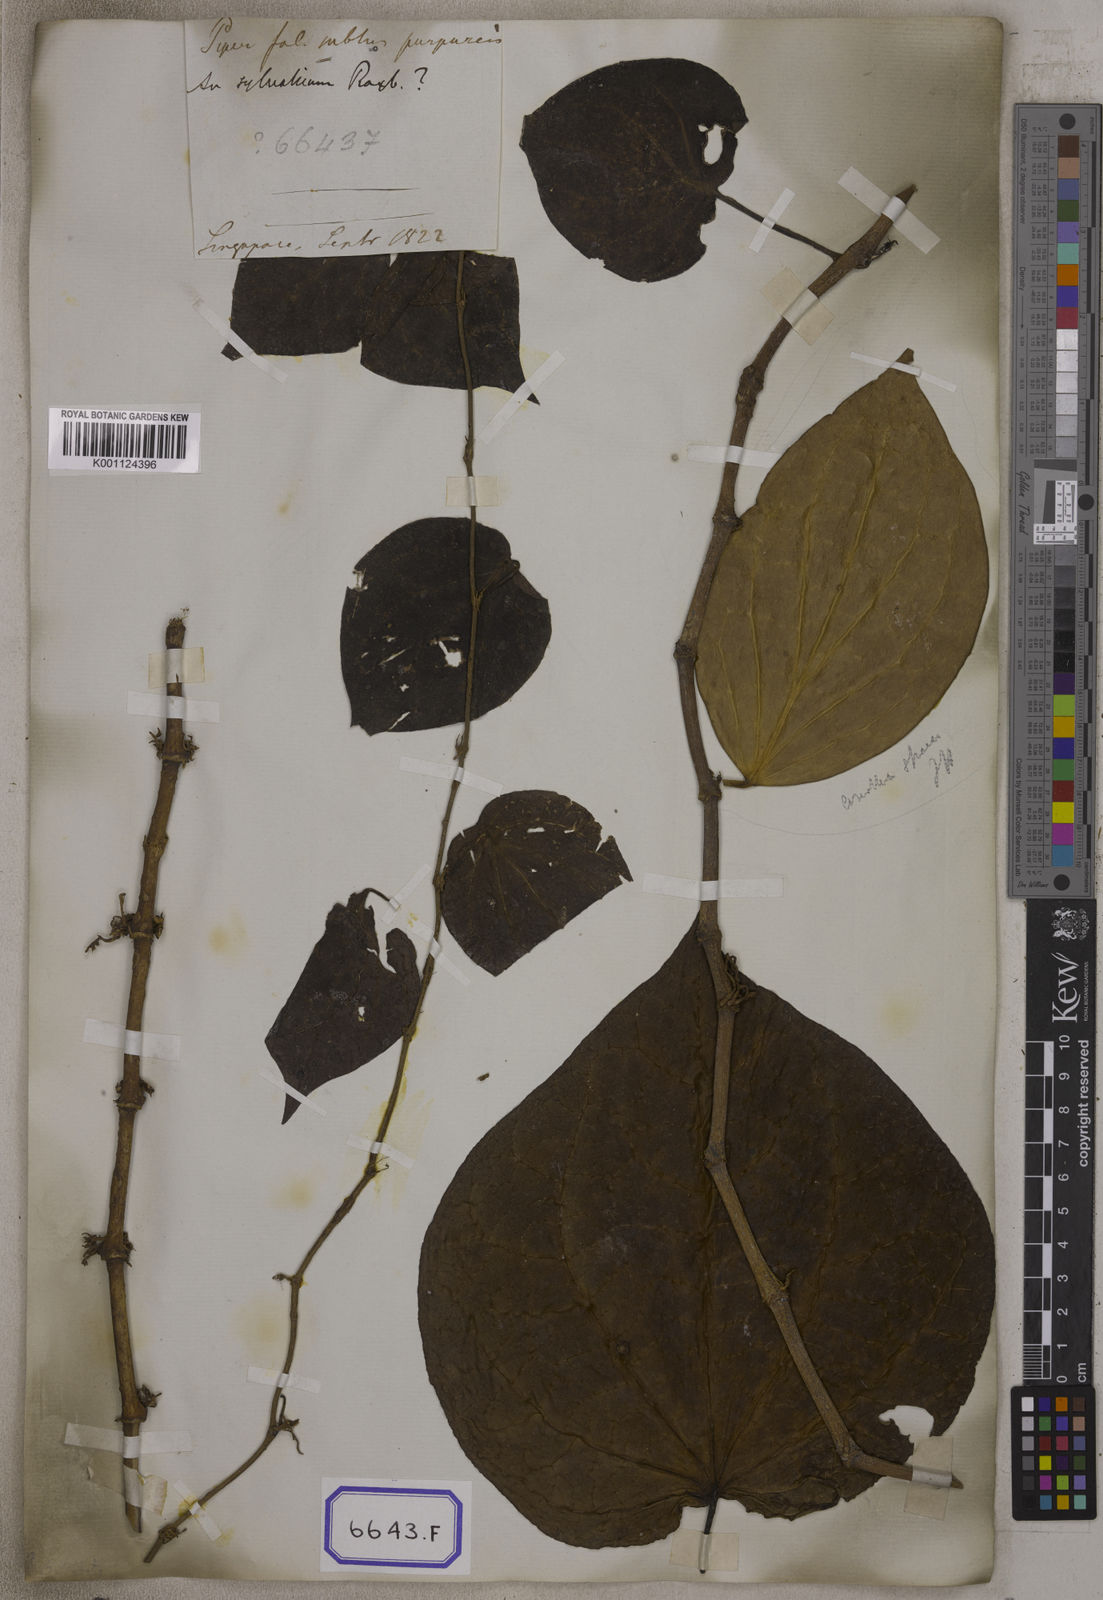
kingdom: Plantae
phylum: Tracheophyta
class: Magnoliopsida
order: Piperales
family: Piperaceae
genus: Piper
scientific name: Piper
